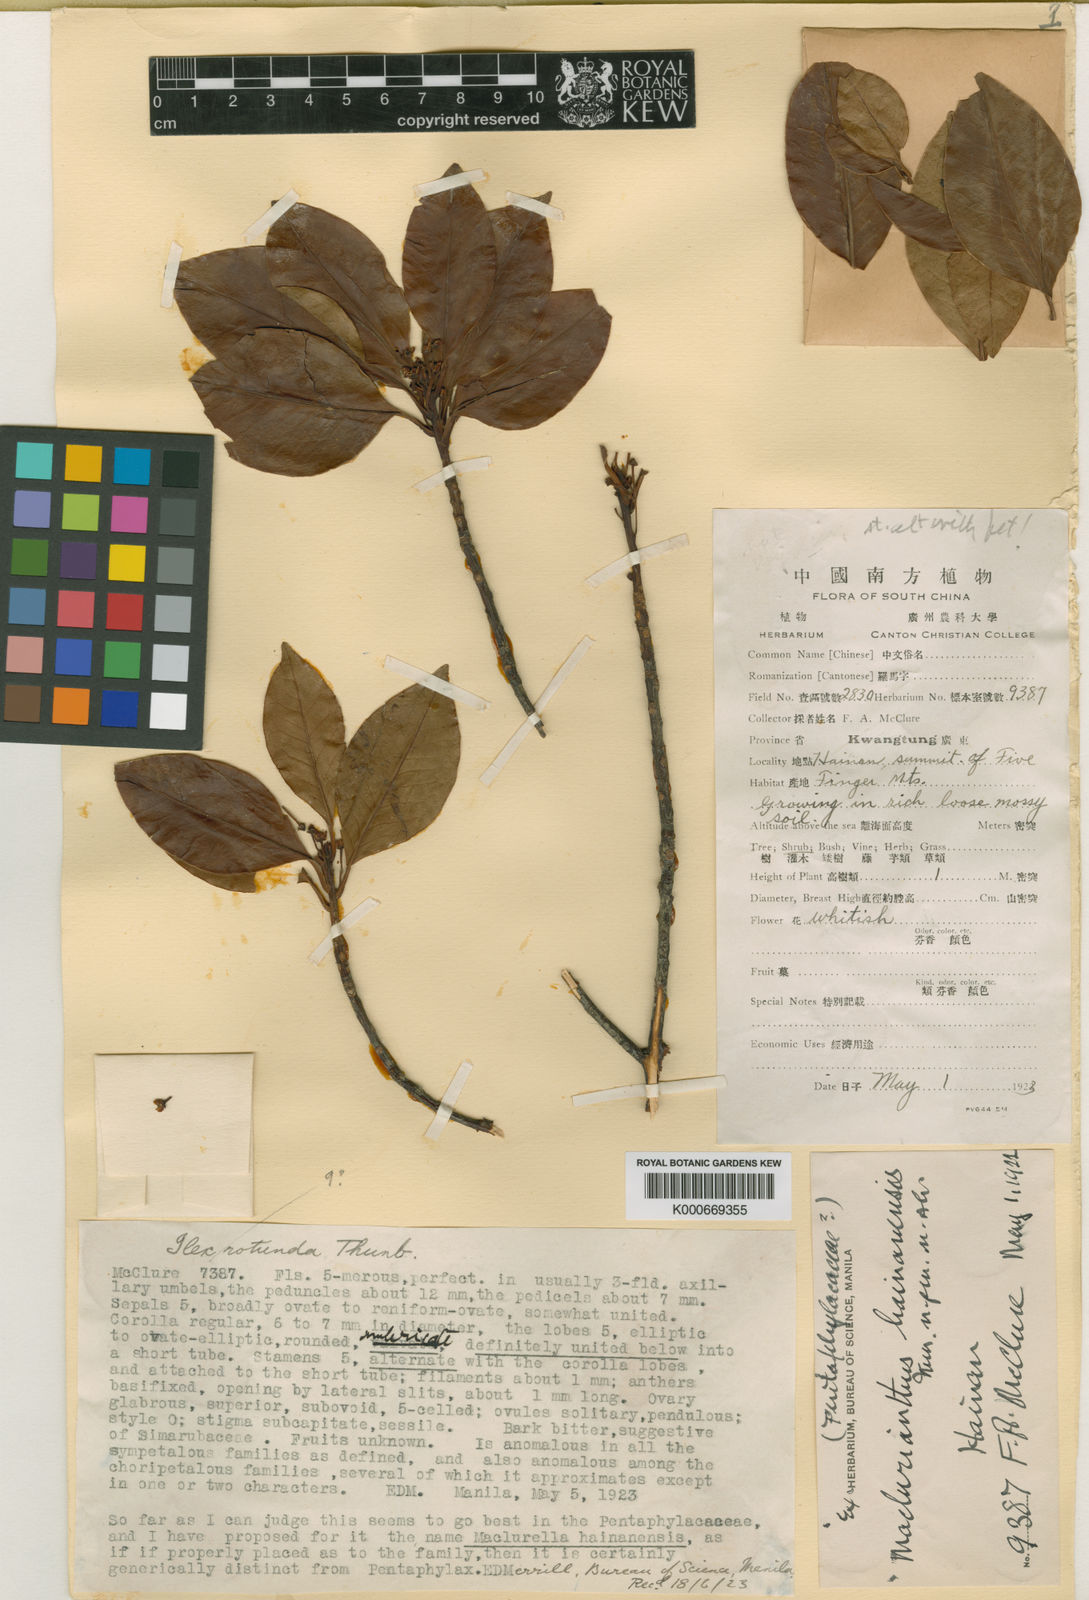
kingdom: Plantae
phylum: Tracheophyta
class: Magnoliopsida
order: Aquifoliales
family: Aquifoliaceae
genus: Ilex
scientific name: Ilex sterrophylla
